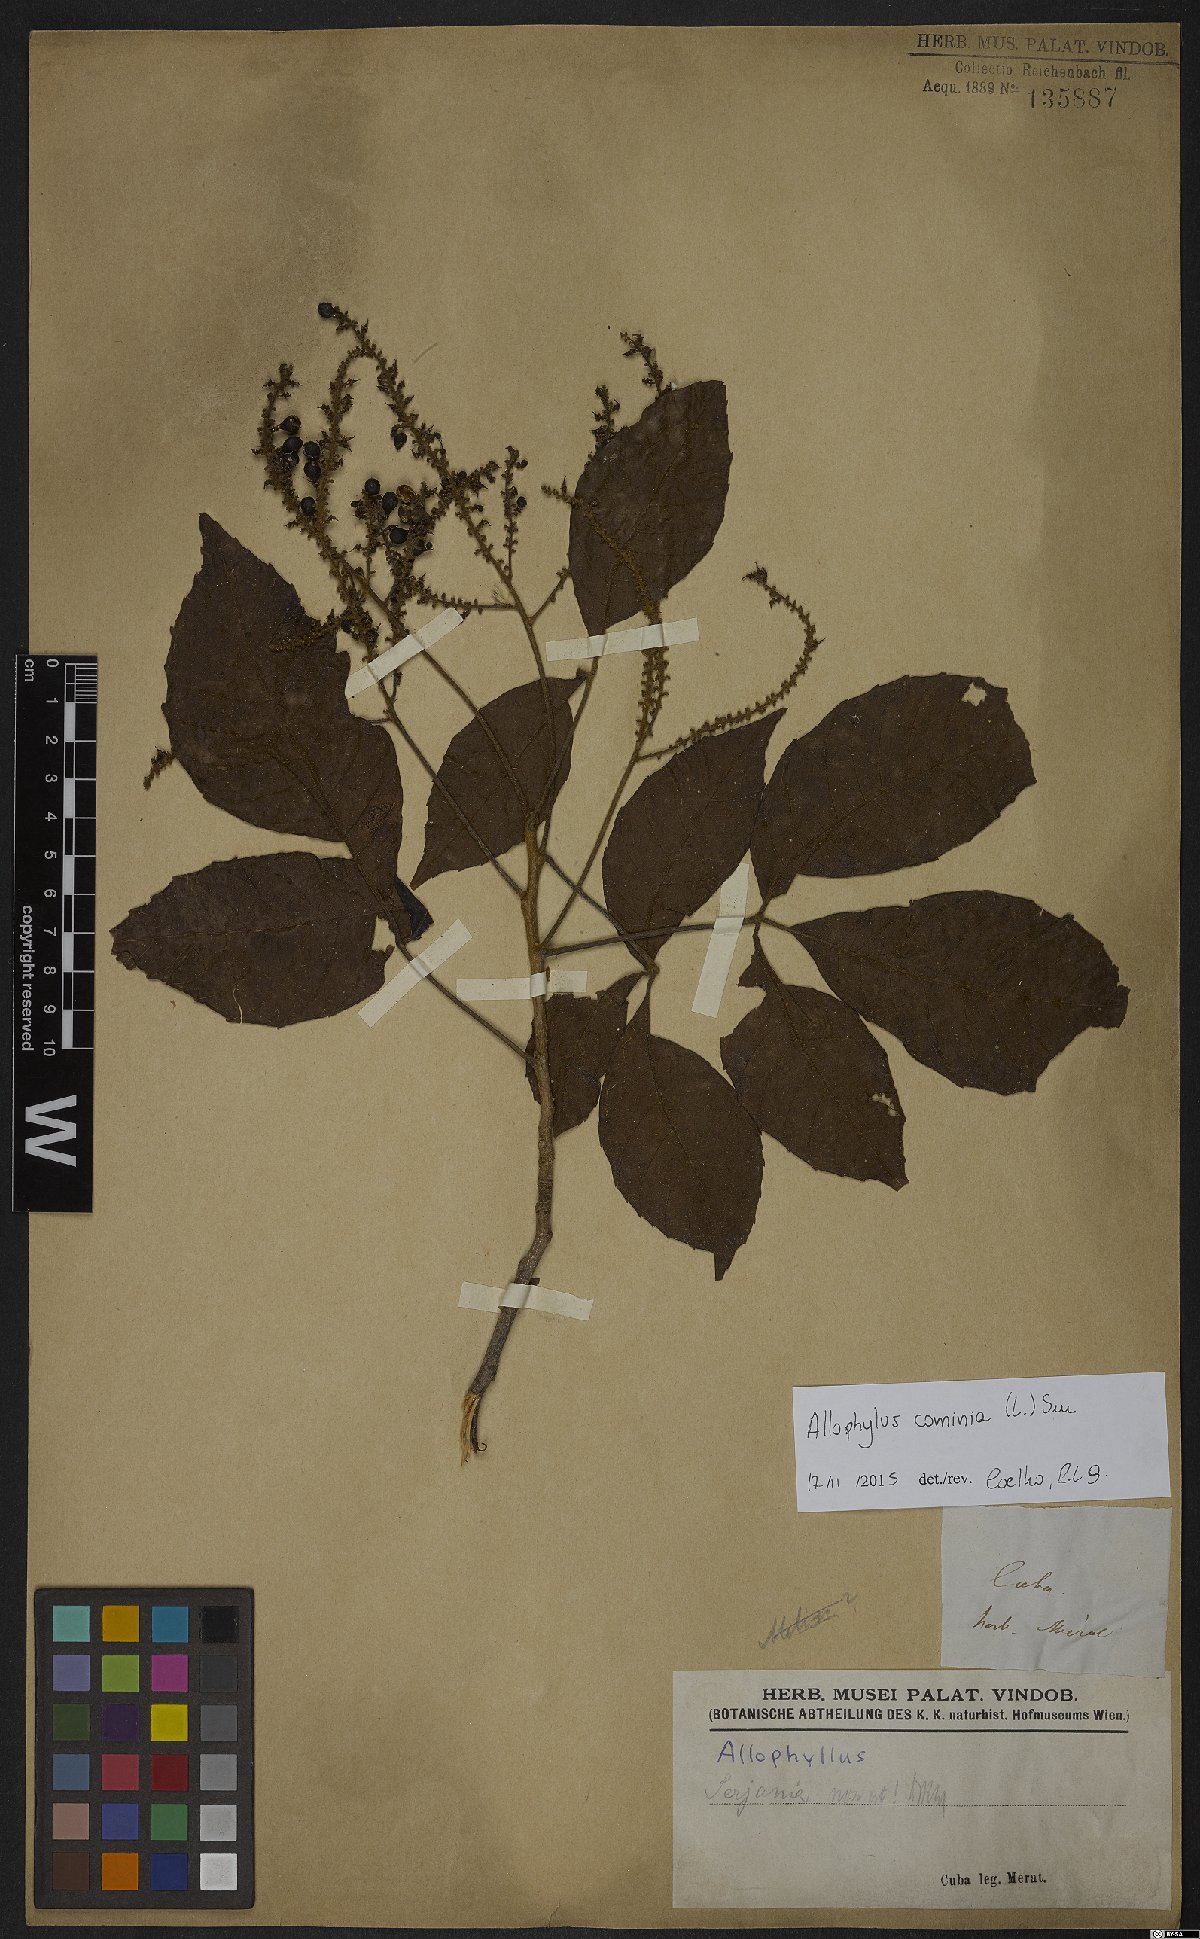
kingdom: Plantae
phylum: Tracheophyta
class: Magnoliopsida
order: Sapindales
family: Sapindaceae
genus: Allophylus
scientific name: Allophylus cominia
